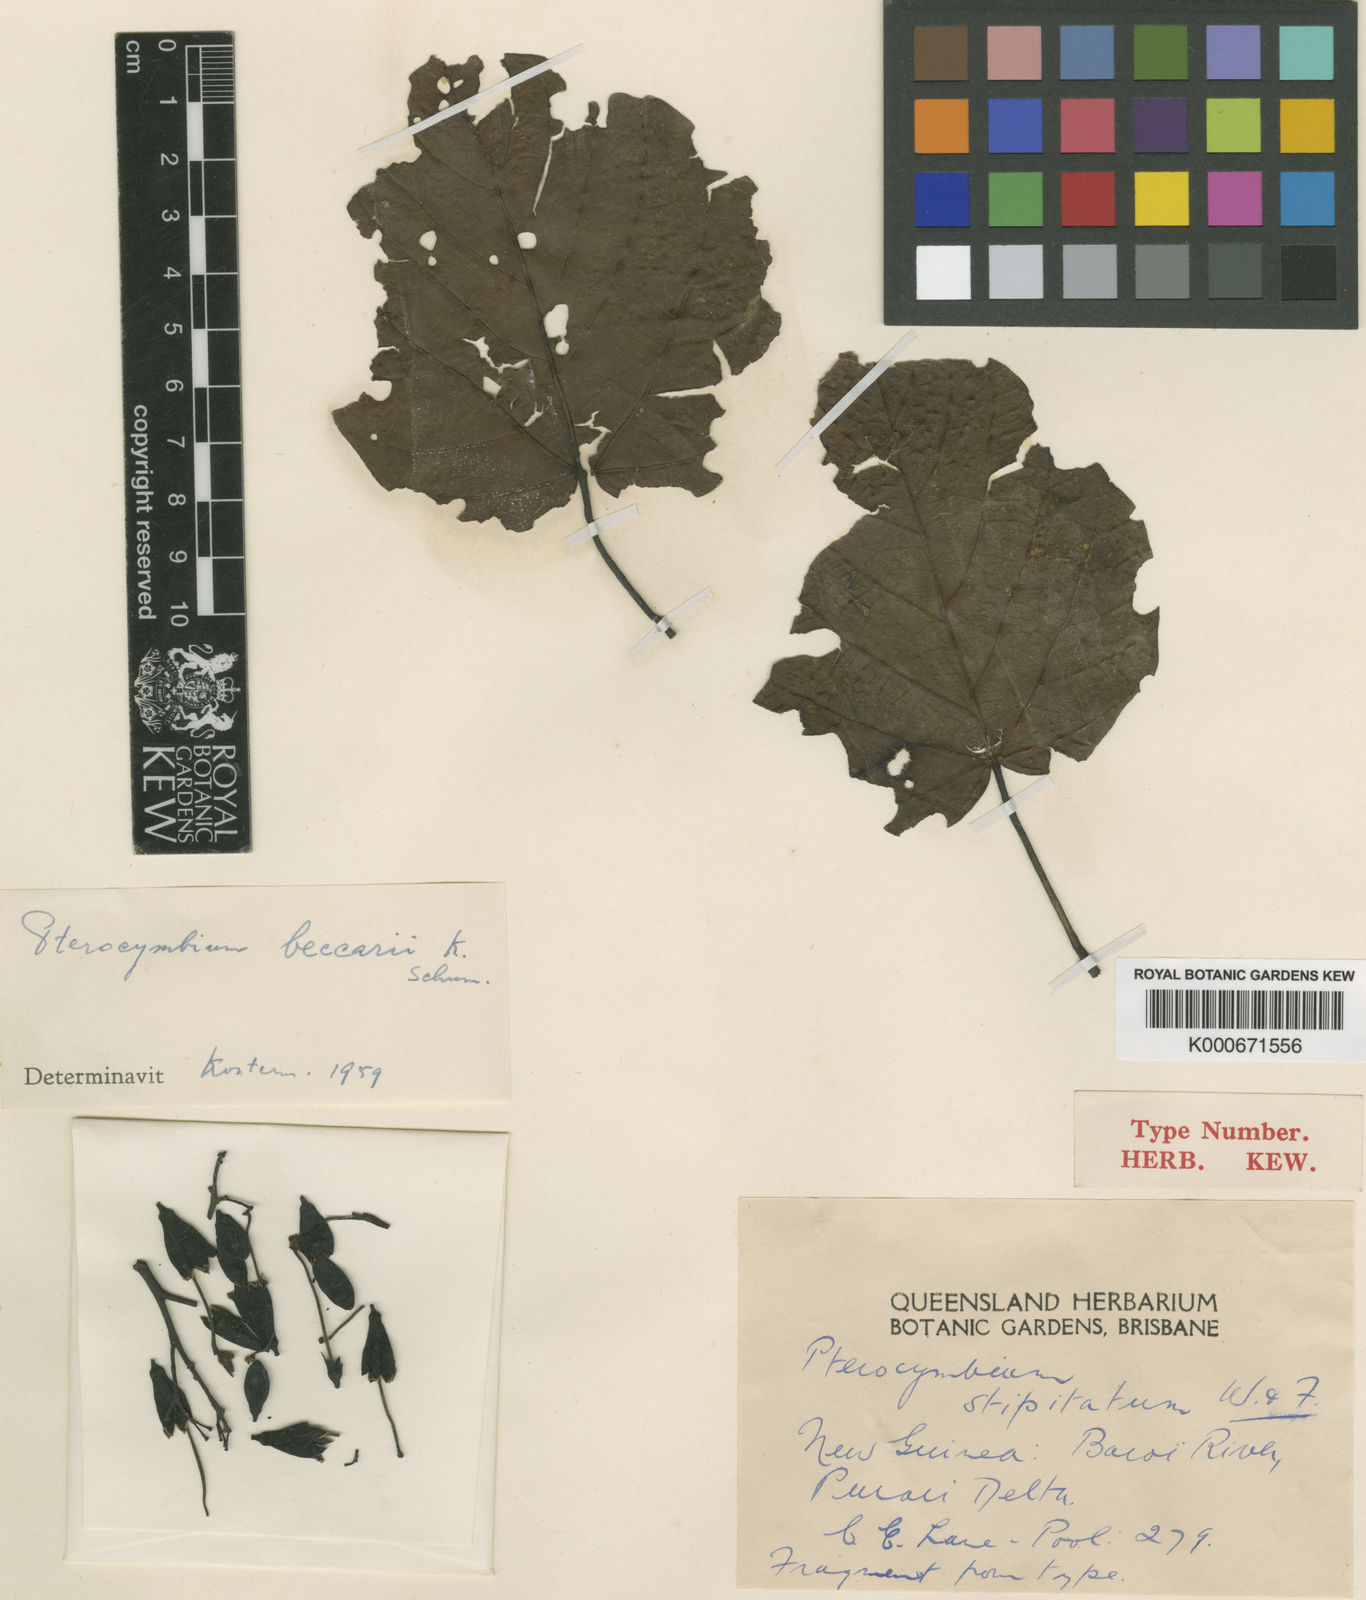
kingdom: Plantae
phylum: Tracheophyta
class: Magnoliopsida
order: Malvales
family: Malvaceae
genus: Pterocymbium
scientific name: Pterocymbium beccarii
